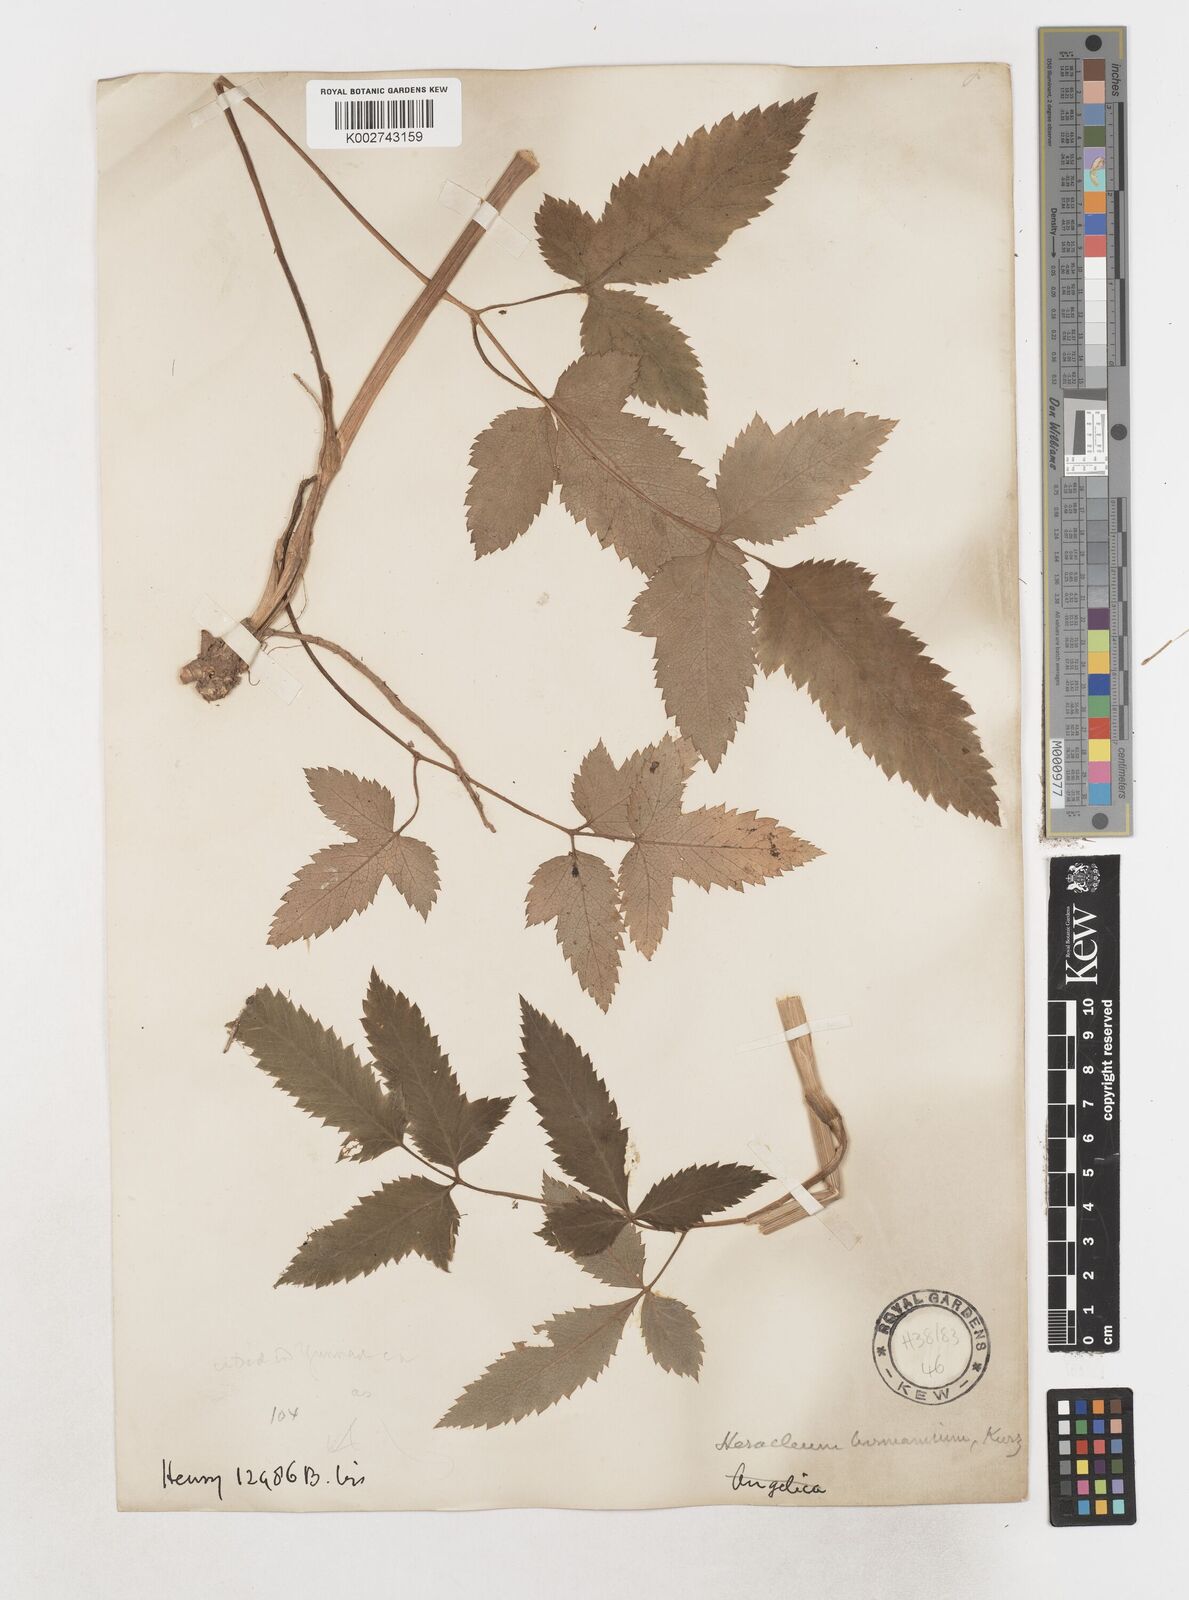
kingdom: Plantae
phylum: Tracheophyta
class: Magnoliopsida
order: Apiales
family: Apiaceae
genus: Tetrataenium
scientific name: Tetrataenium birmanicum
